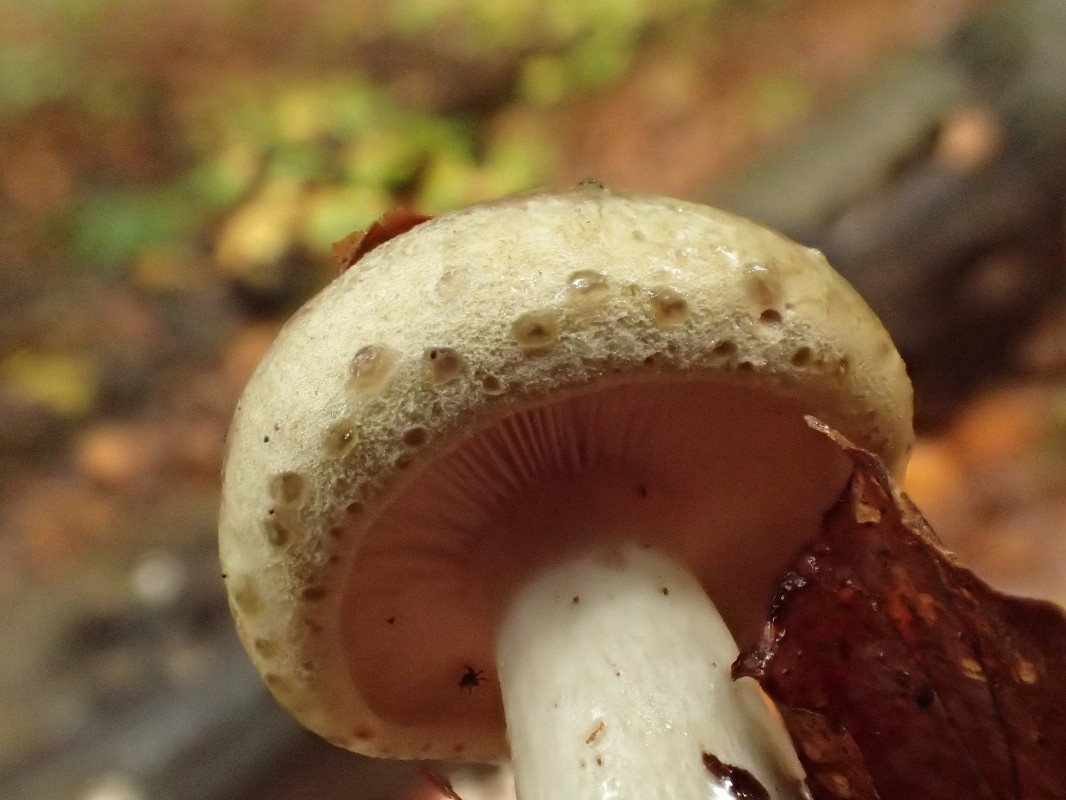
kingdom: Fungi
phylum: Basidiomycota
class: Agaricomycetes
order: Russulales
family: Russulaceae
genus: Lactarius
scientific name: Lactarius blennius
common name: dråbeplettet mælkehat
